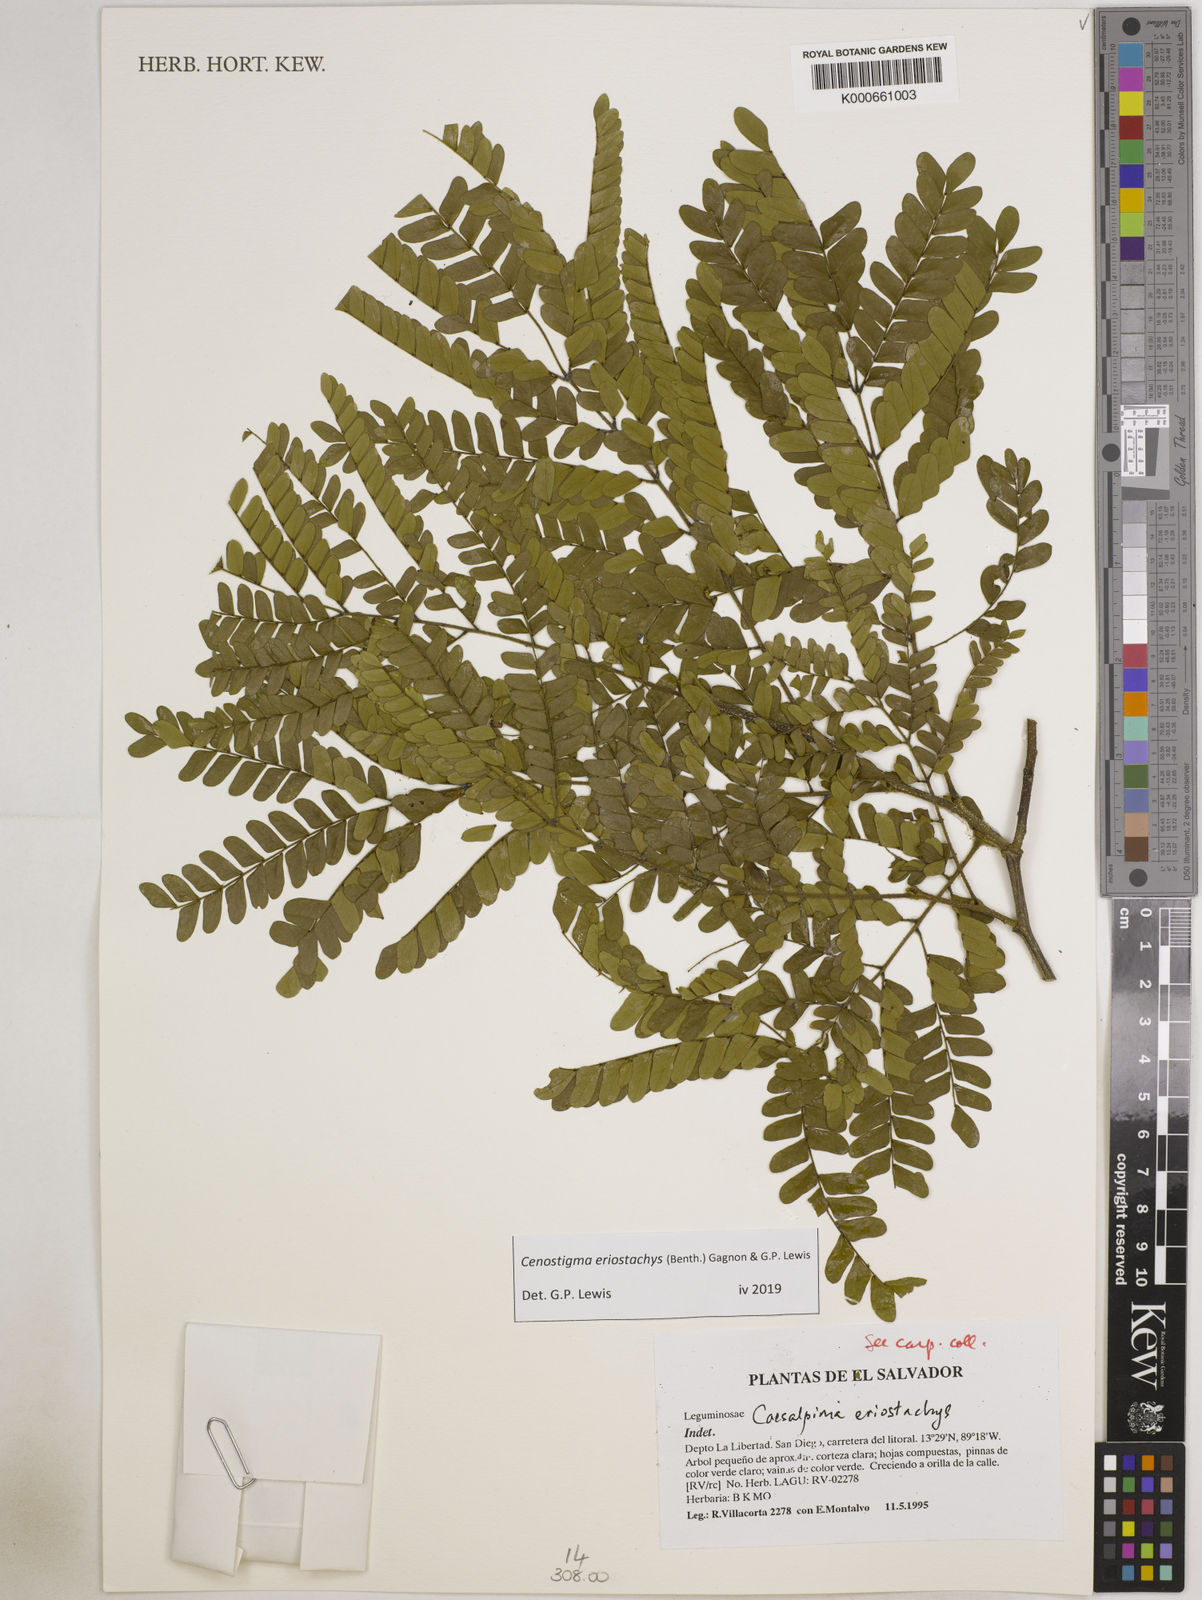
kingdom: Plantae
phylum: Tracheophyta
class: Magnoliopsida
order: Fabales
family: Fabaceae
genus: Cenostigma
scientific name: Cenostigma eriostachys
